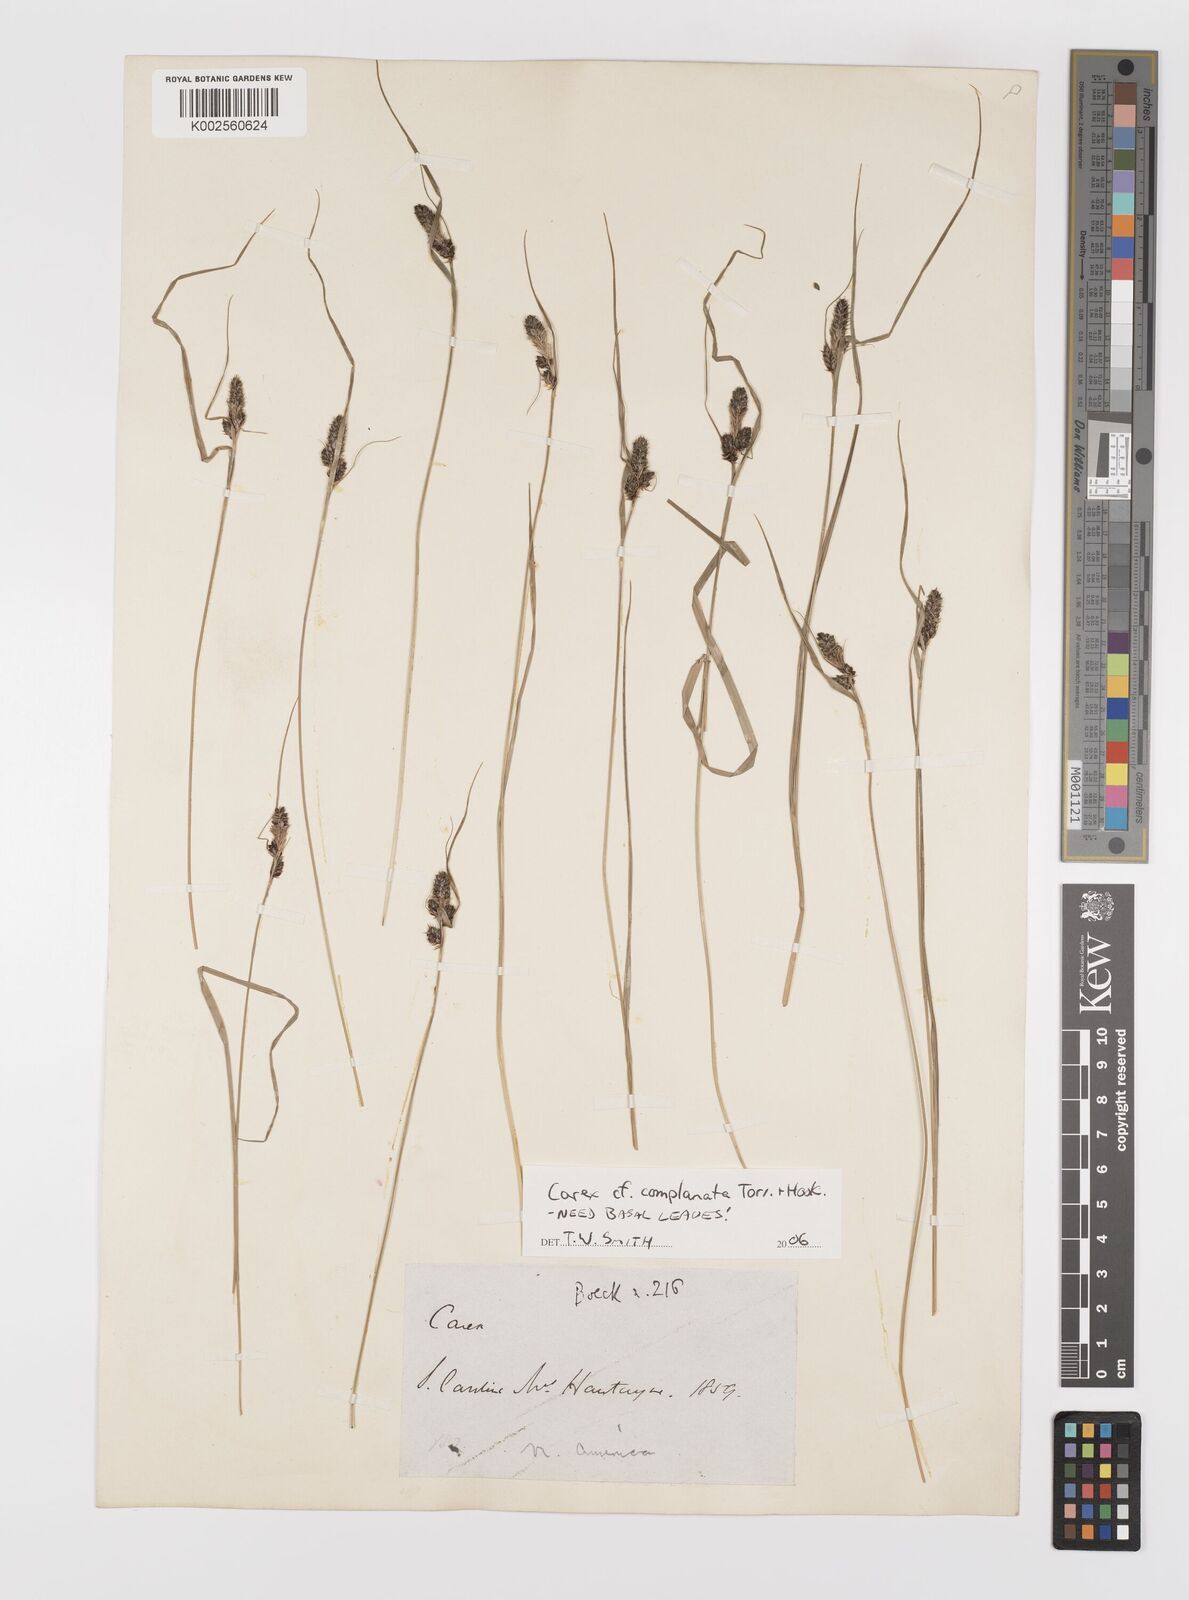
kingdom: Plantae
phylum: Tracheophyta
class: Liliopsida
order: Poales
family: Cyperaceae
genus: Carex
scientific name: Carex complanata
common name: Hirsute sedge
